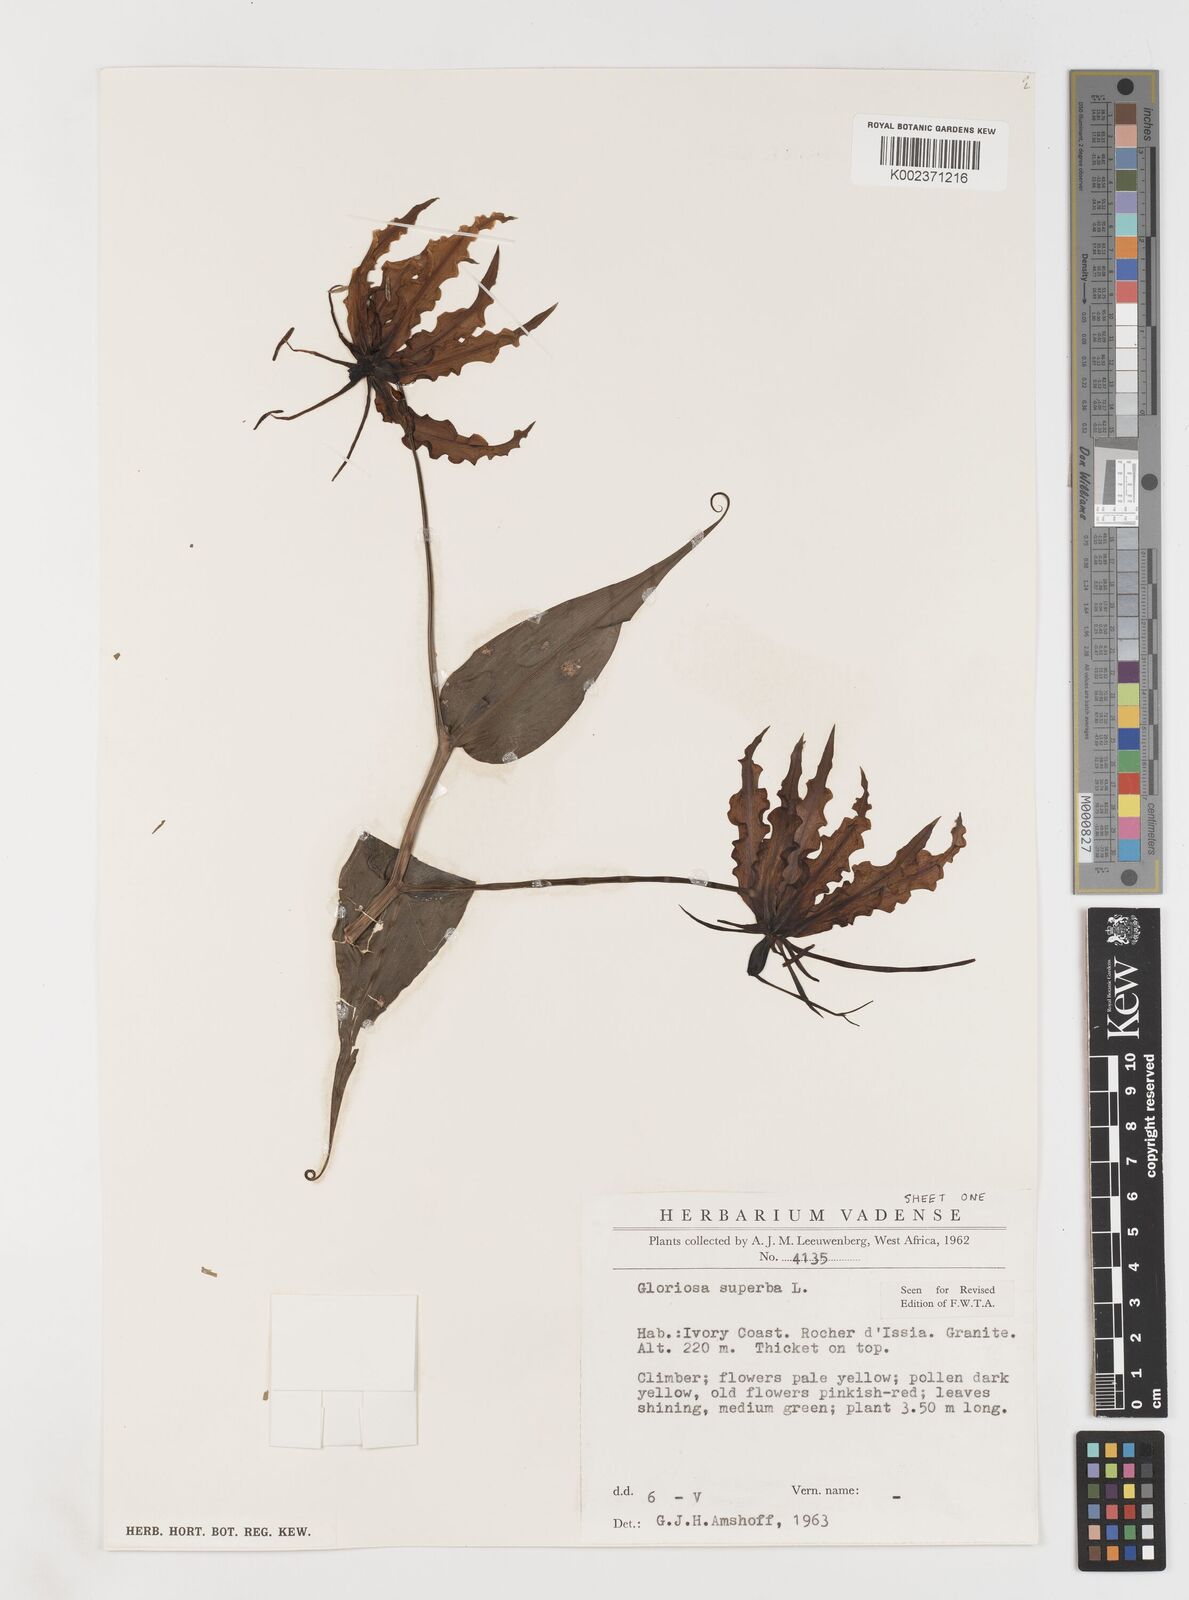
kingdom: Plantae
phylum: Tracheophyta
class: Liliopsida
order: Liliales
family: Colchicaceae
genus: Gloriosa
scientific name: Gloriosa superba
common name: Flame lily
